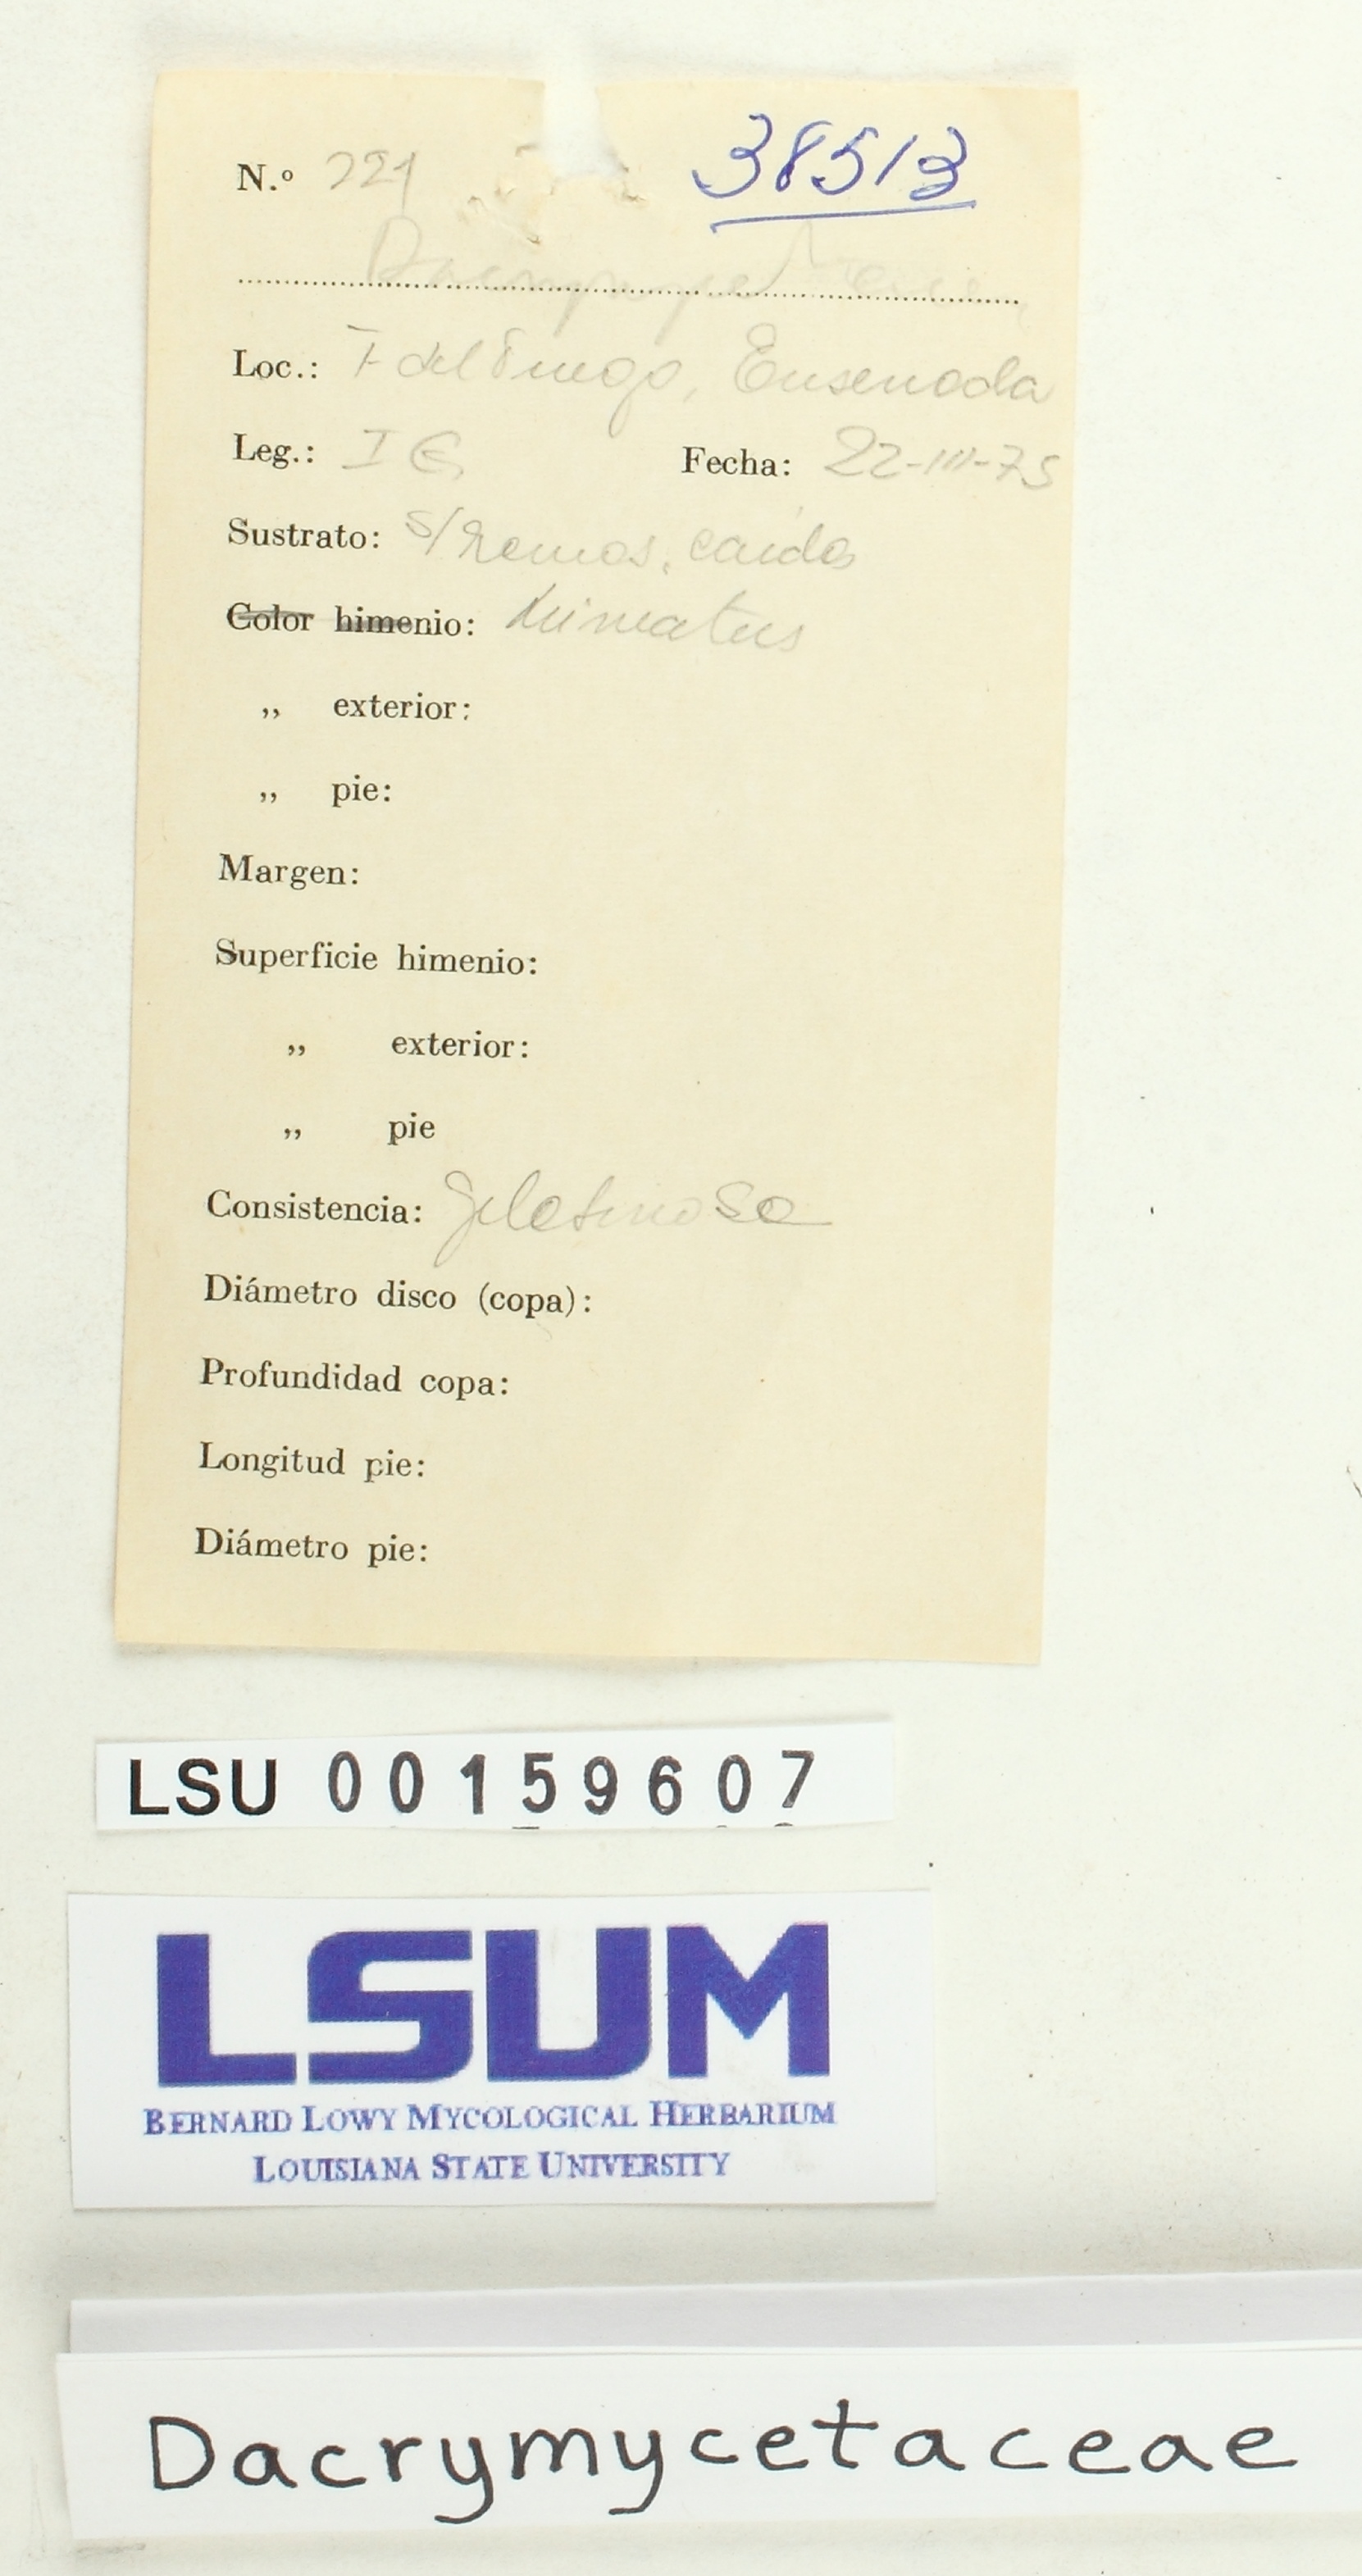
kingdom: Fungi
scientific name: Fungi
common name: Fungi
